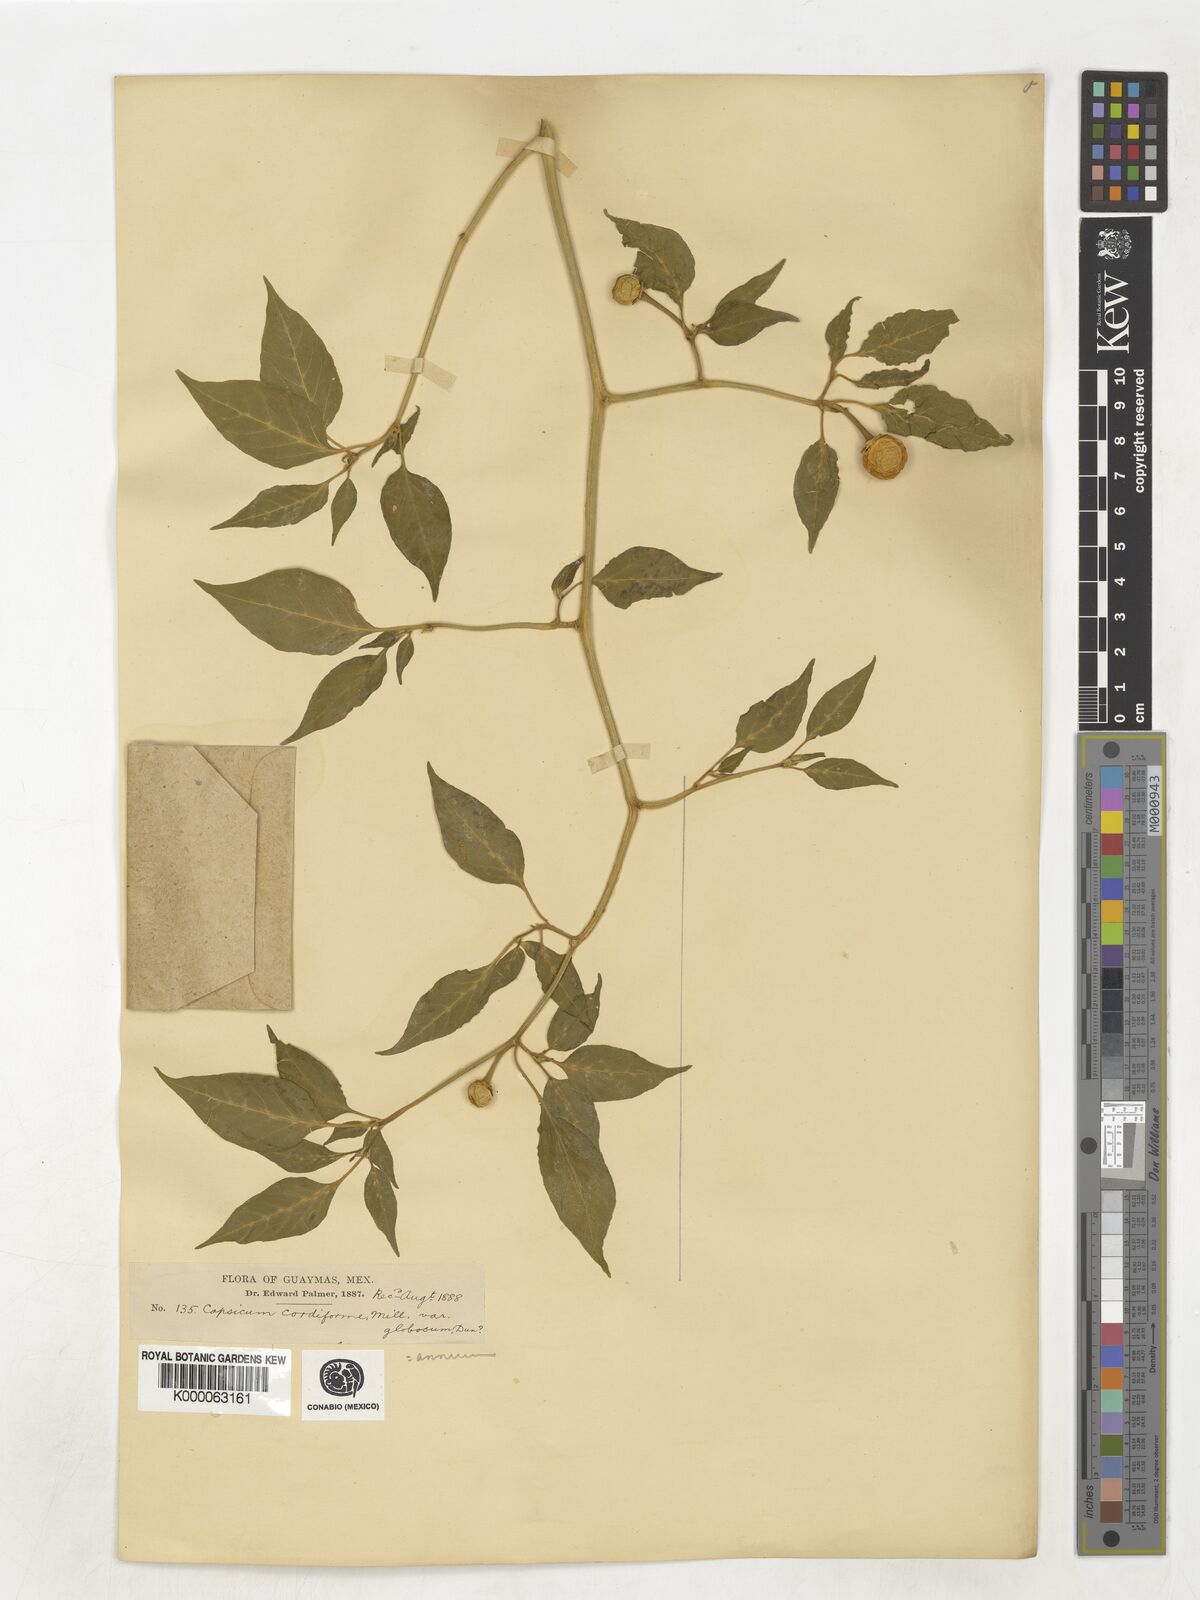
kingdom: Plantae
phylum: Tracheophyta
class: Magnoliopsida
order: Solanales
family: Solanaceae
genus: Capsicum
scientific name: Capsicum annuum
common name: Sweet pepper
